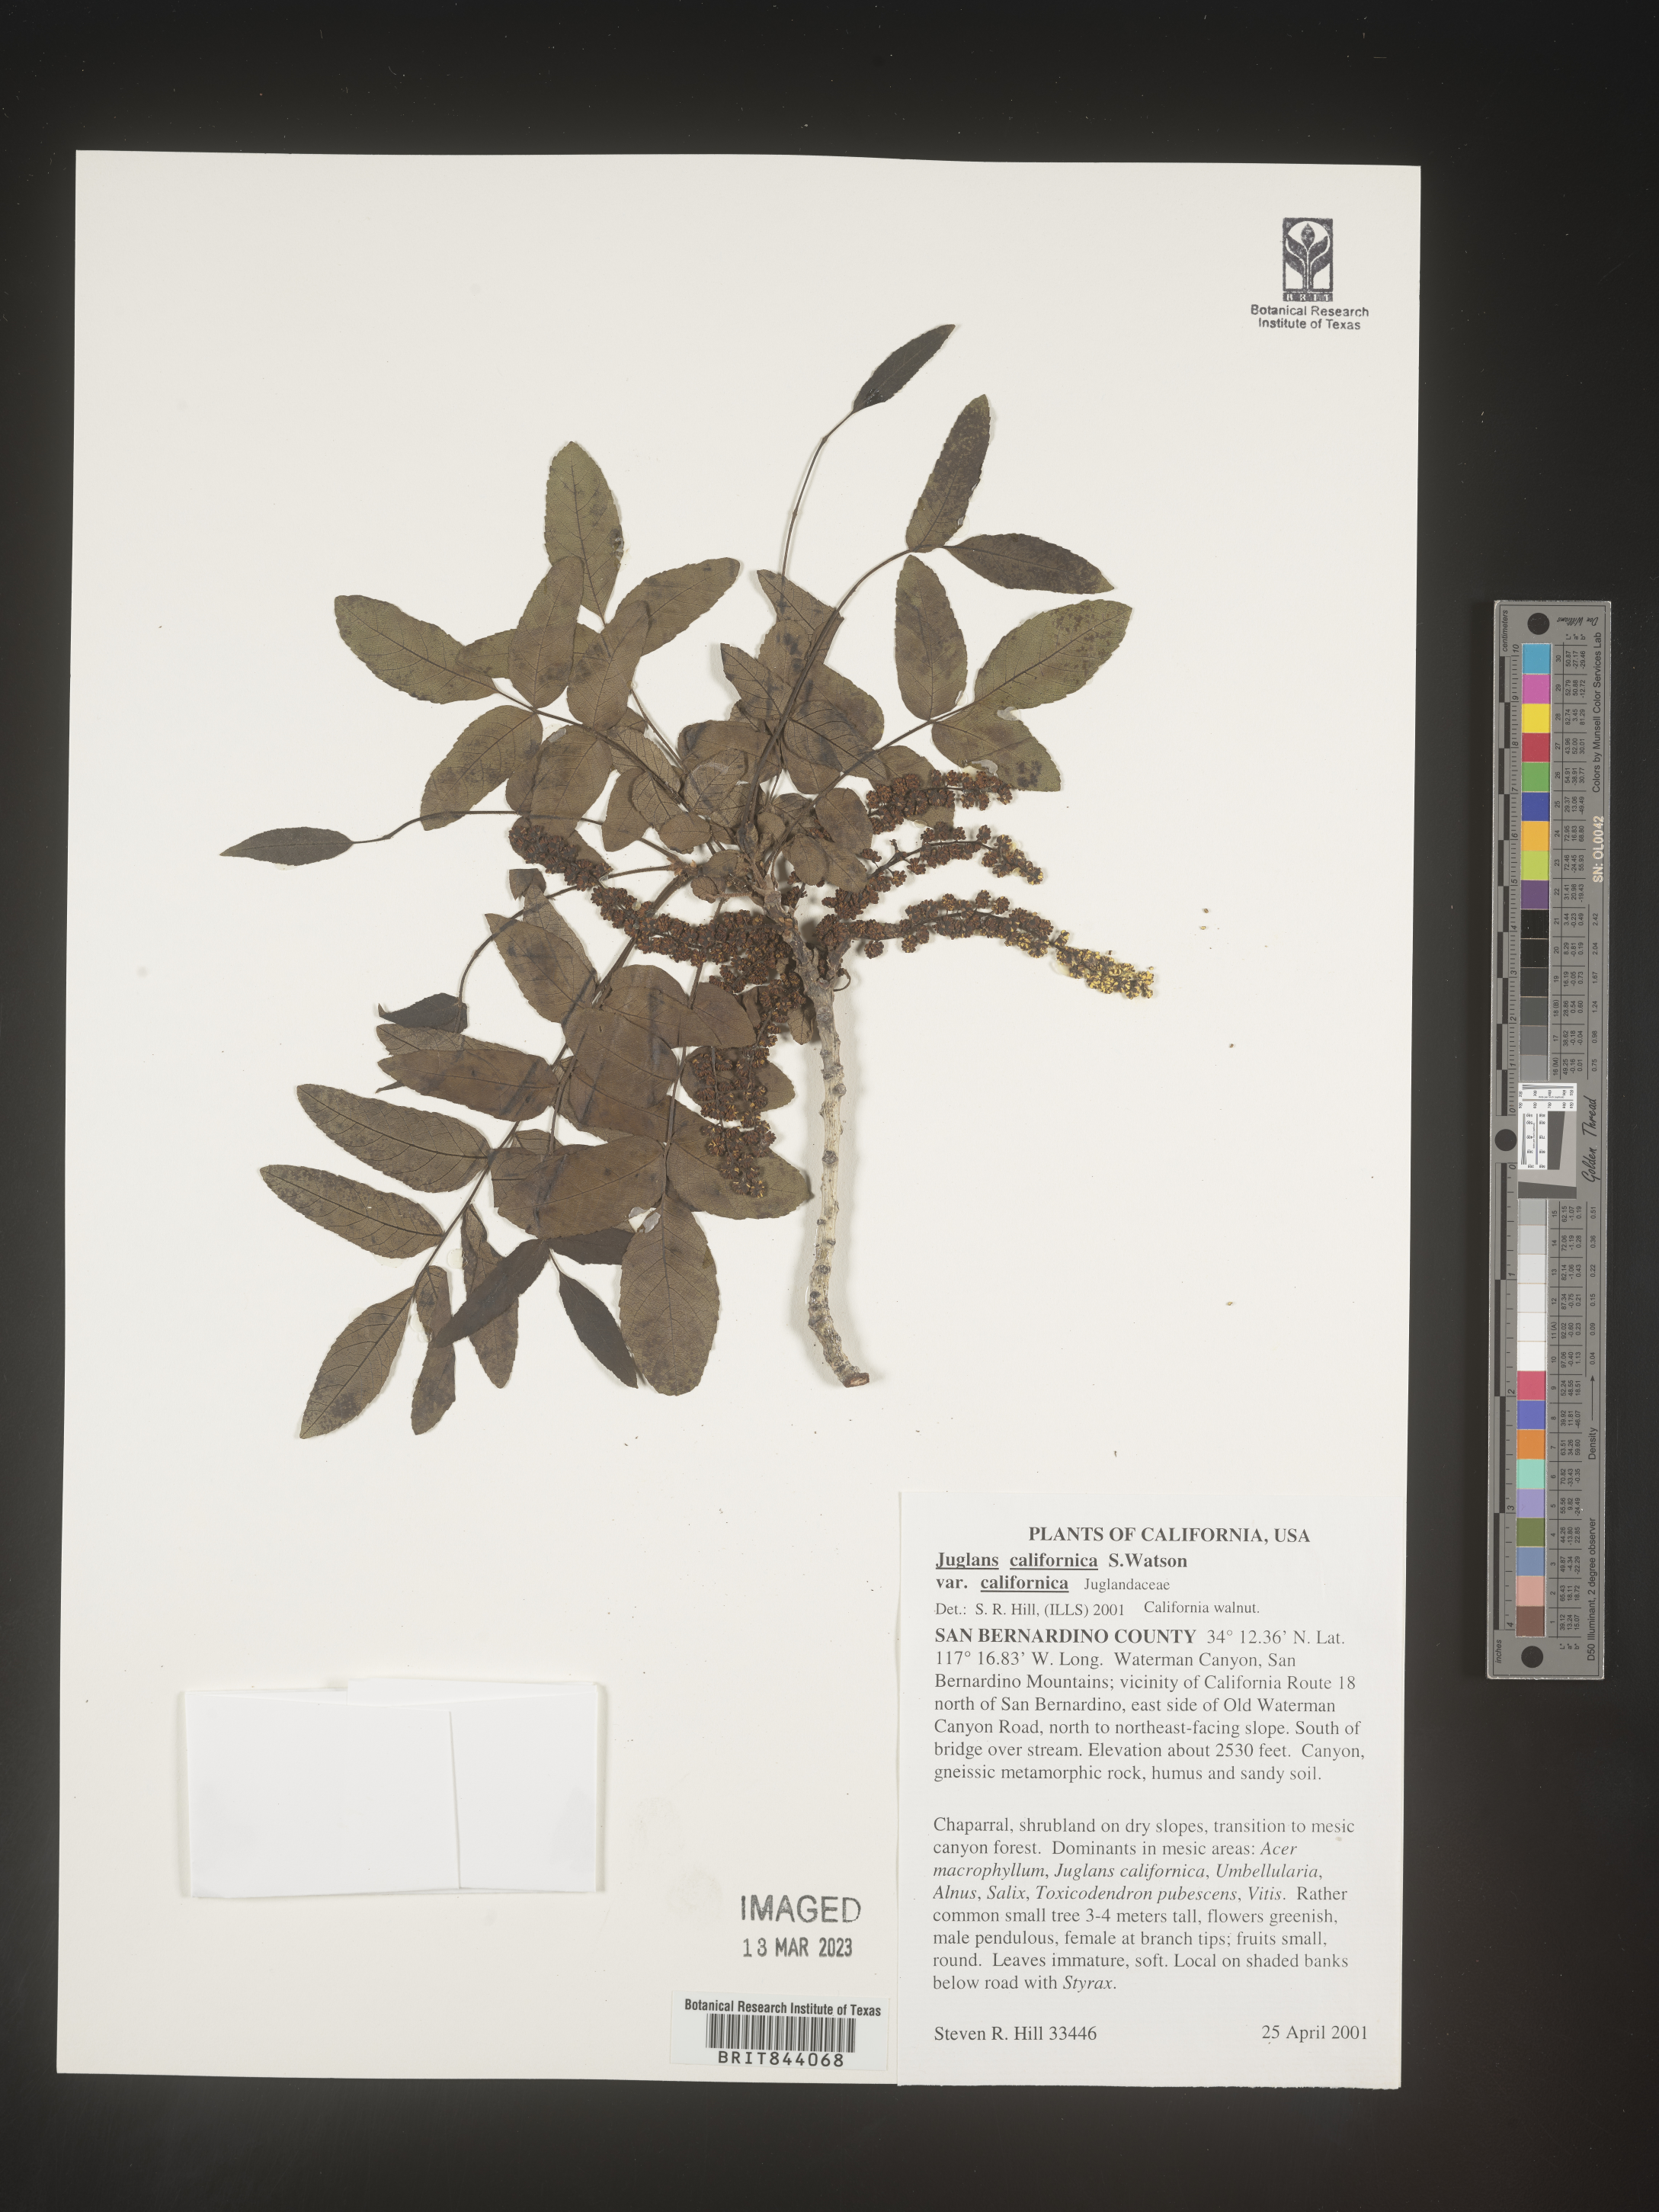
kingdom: Plantae
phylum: Tracheophyta
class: Magnoliopsida
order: Fagales
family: Juglandaceae
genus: Juglans
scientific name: Juglans californica
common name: Southern california black walnut
